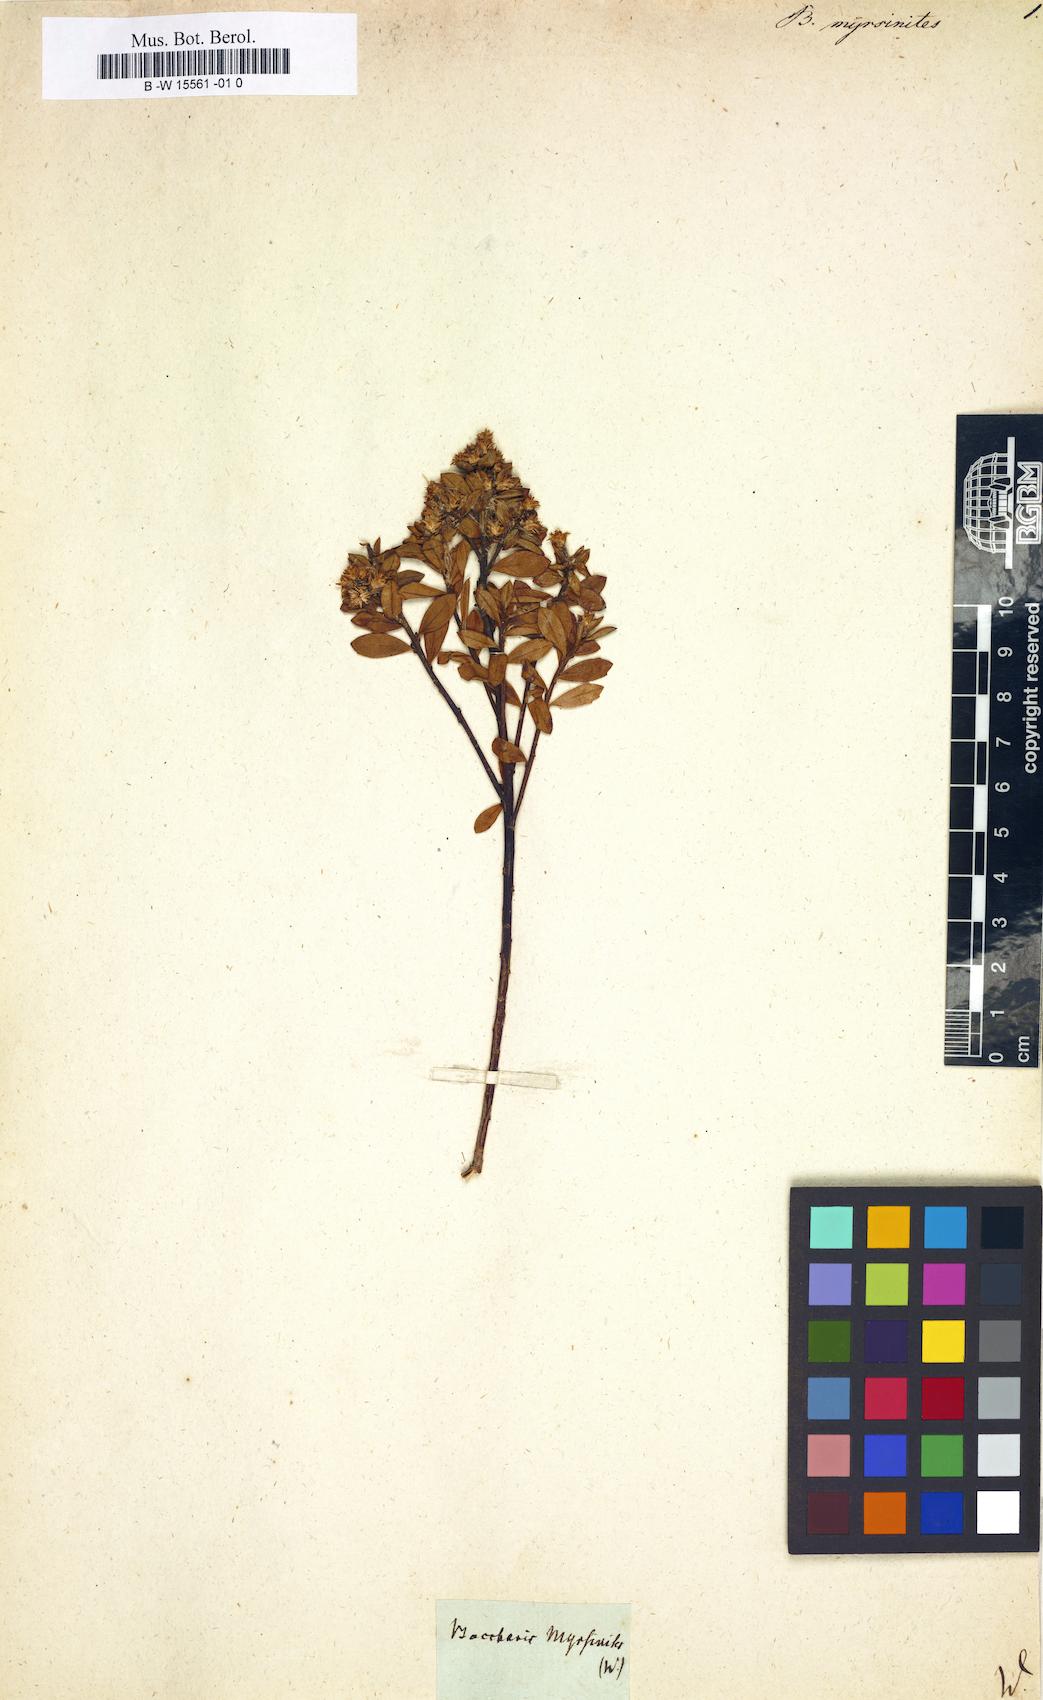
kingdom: Plantae
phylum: Tracheophyta
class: Magnoliopsida
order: Asterales
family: Asteraceae
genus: Baccharis
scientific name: Baccharis myrsinites
